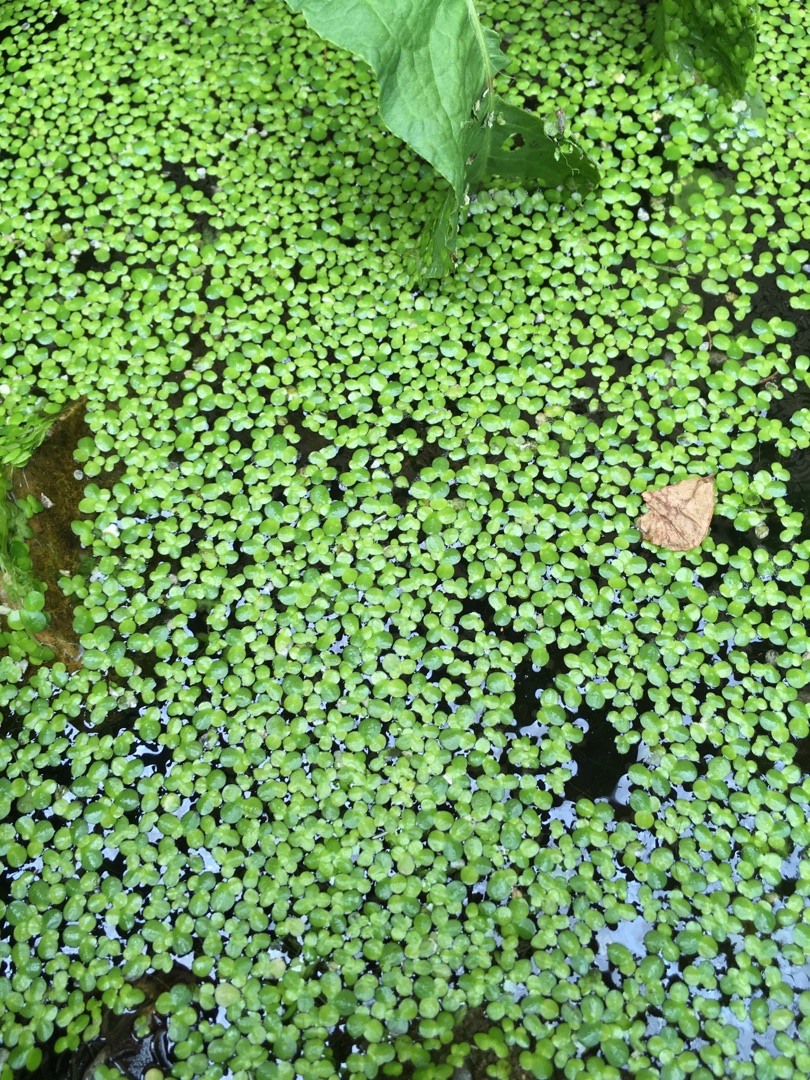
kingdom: Plantae
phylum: Tracheophyta
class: Liliopsida
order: Alismatales
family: Araceae
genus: Lemna
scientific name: Lemna turionifera
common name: Rød andemad
